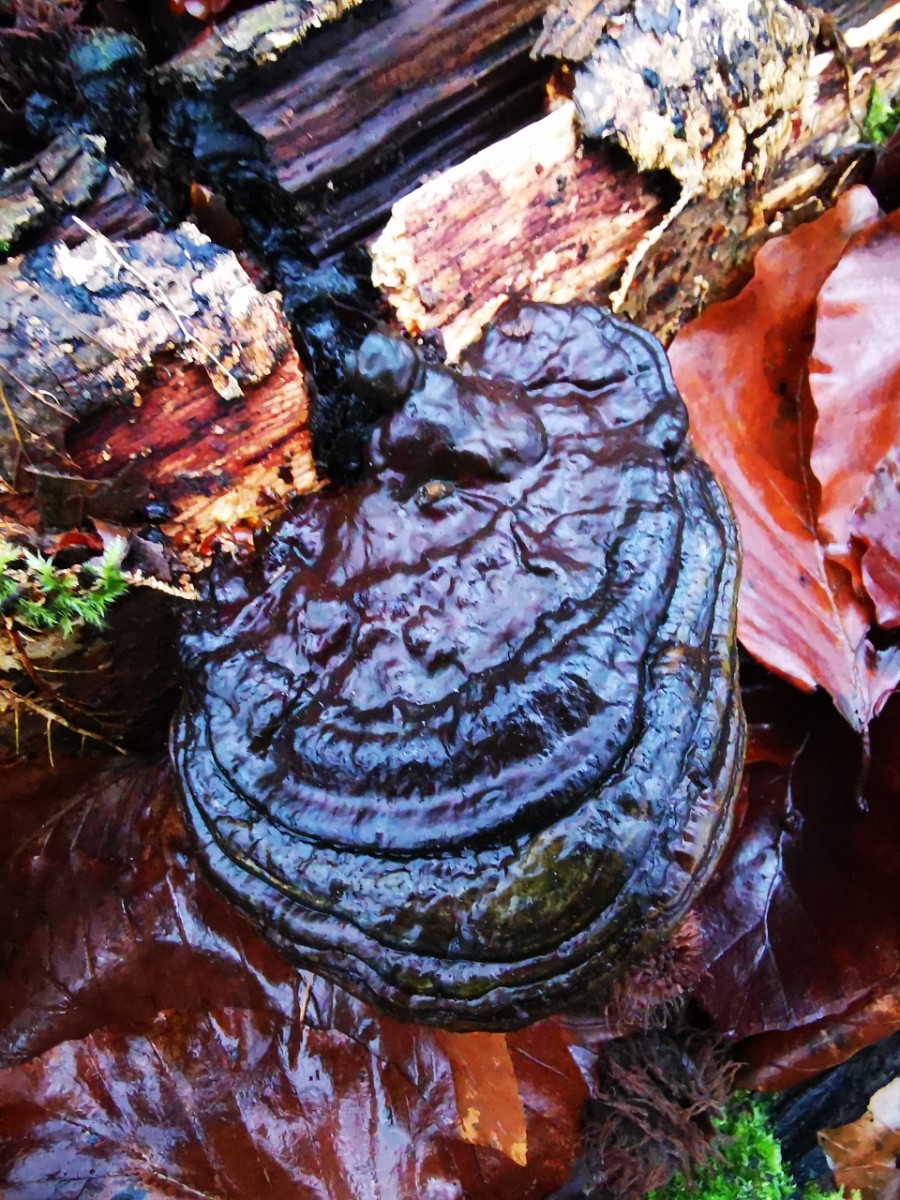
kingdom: Fungi
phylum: Basidiomycota
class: Agaricomycetes
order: Polyporales
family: Polyporaceae
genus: Ganoderma
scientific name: Ganoderma lucidum
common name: skinnende lakporesvamp
